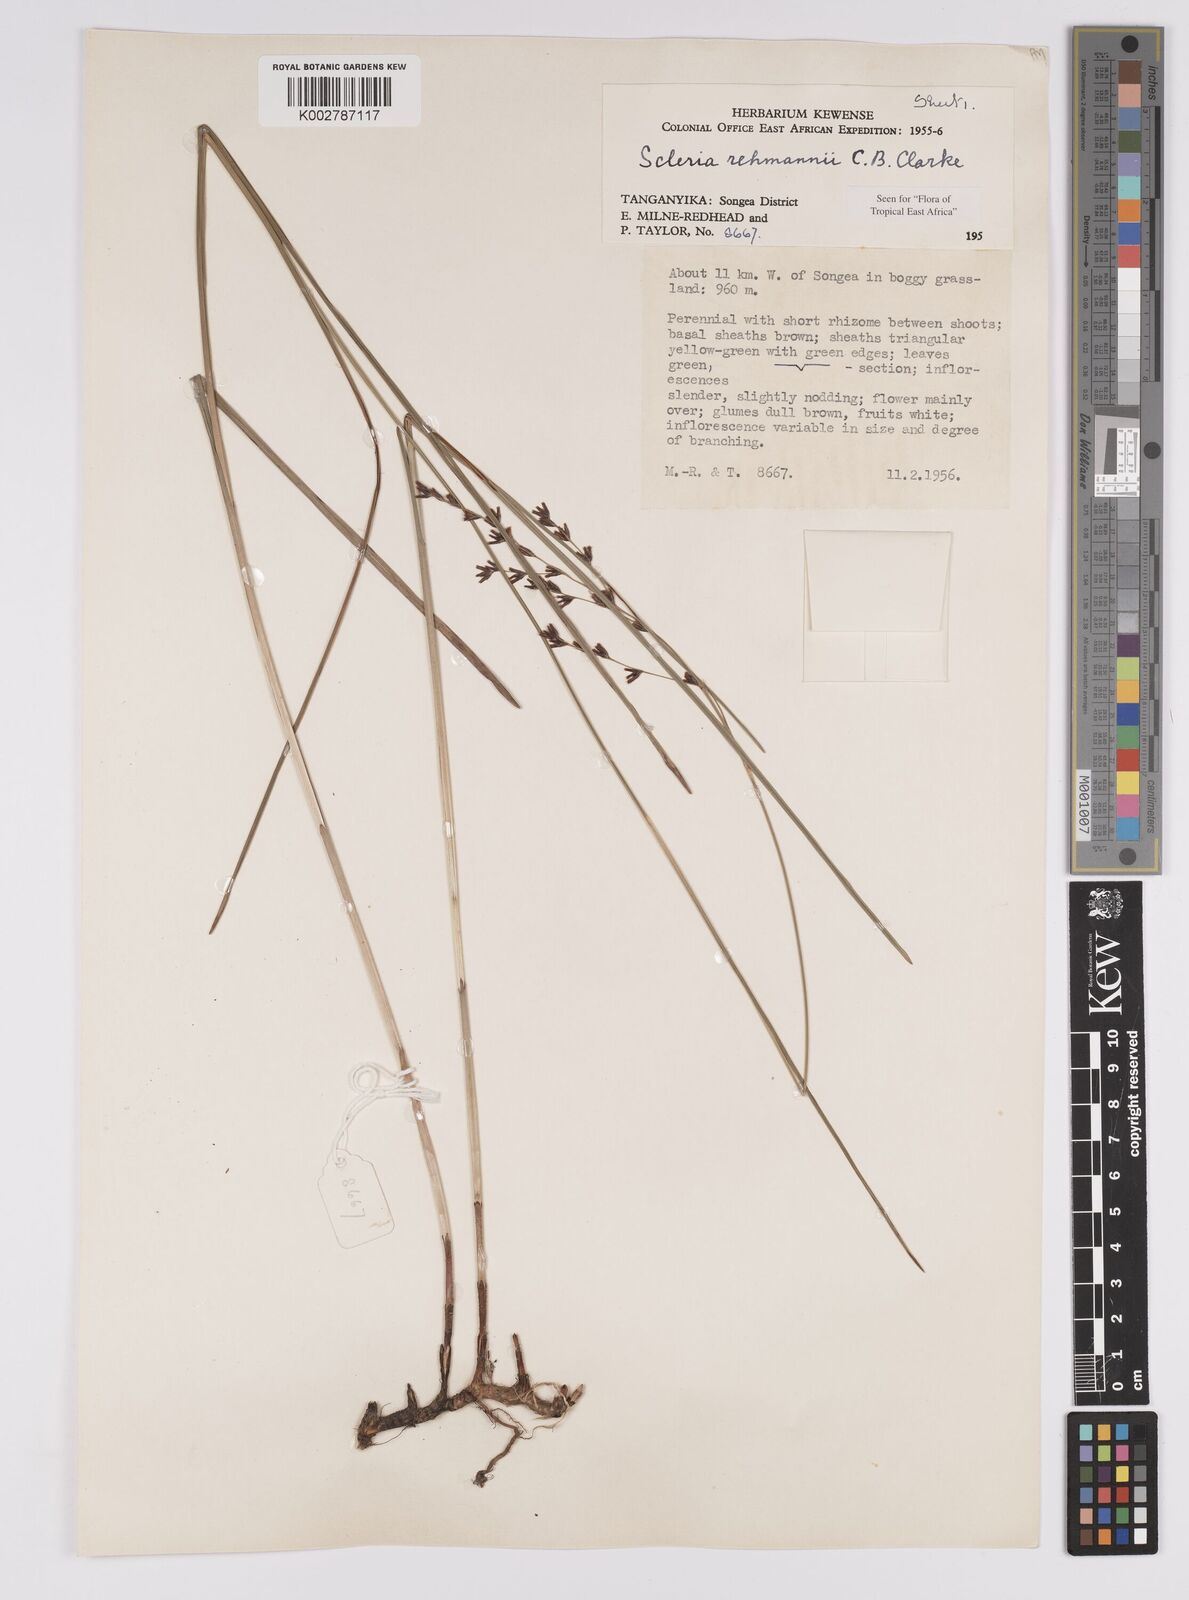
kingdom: Plantae
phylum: Tracheophyta
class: Liliopsida
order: Poales
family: Cyperaceae
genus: Scleria
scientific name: Scleria rehmannii
